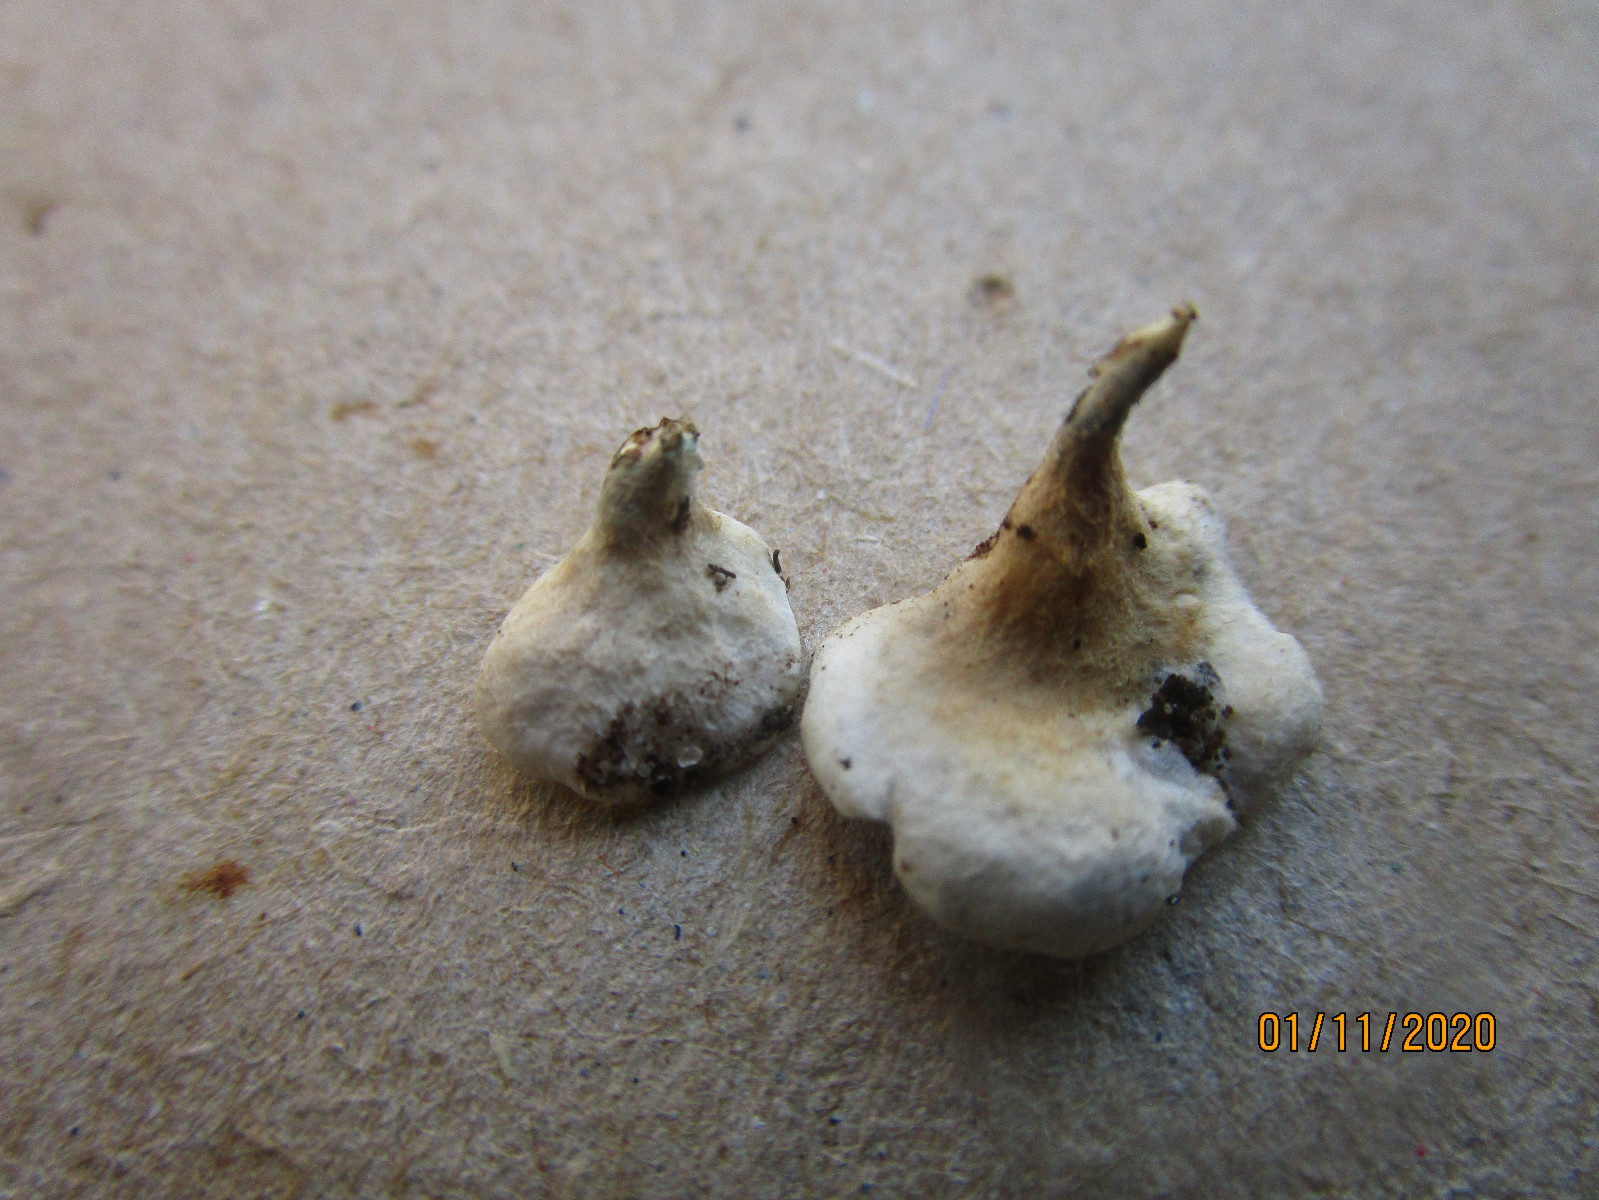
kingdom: Fungi
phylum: Basidiomycota
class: Agaricomycetes
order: Amylocorticiales
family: Amylocorticiaceae
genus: Plicaturopsis
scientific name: Plicaturopsis crispa
